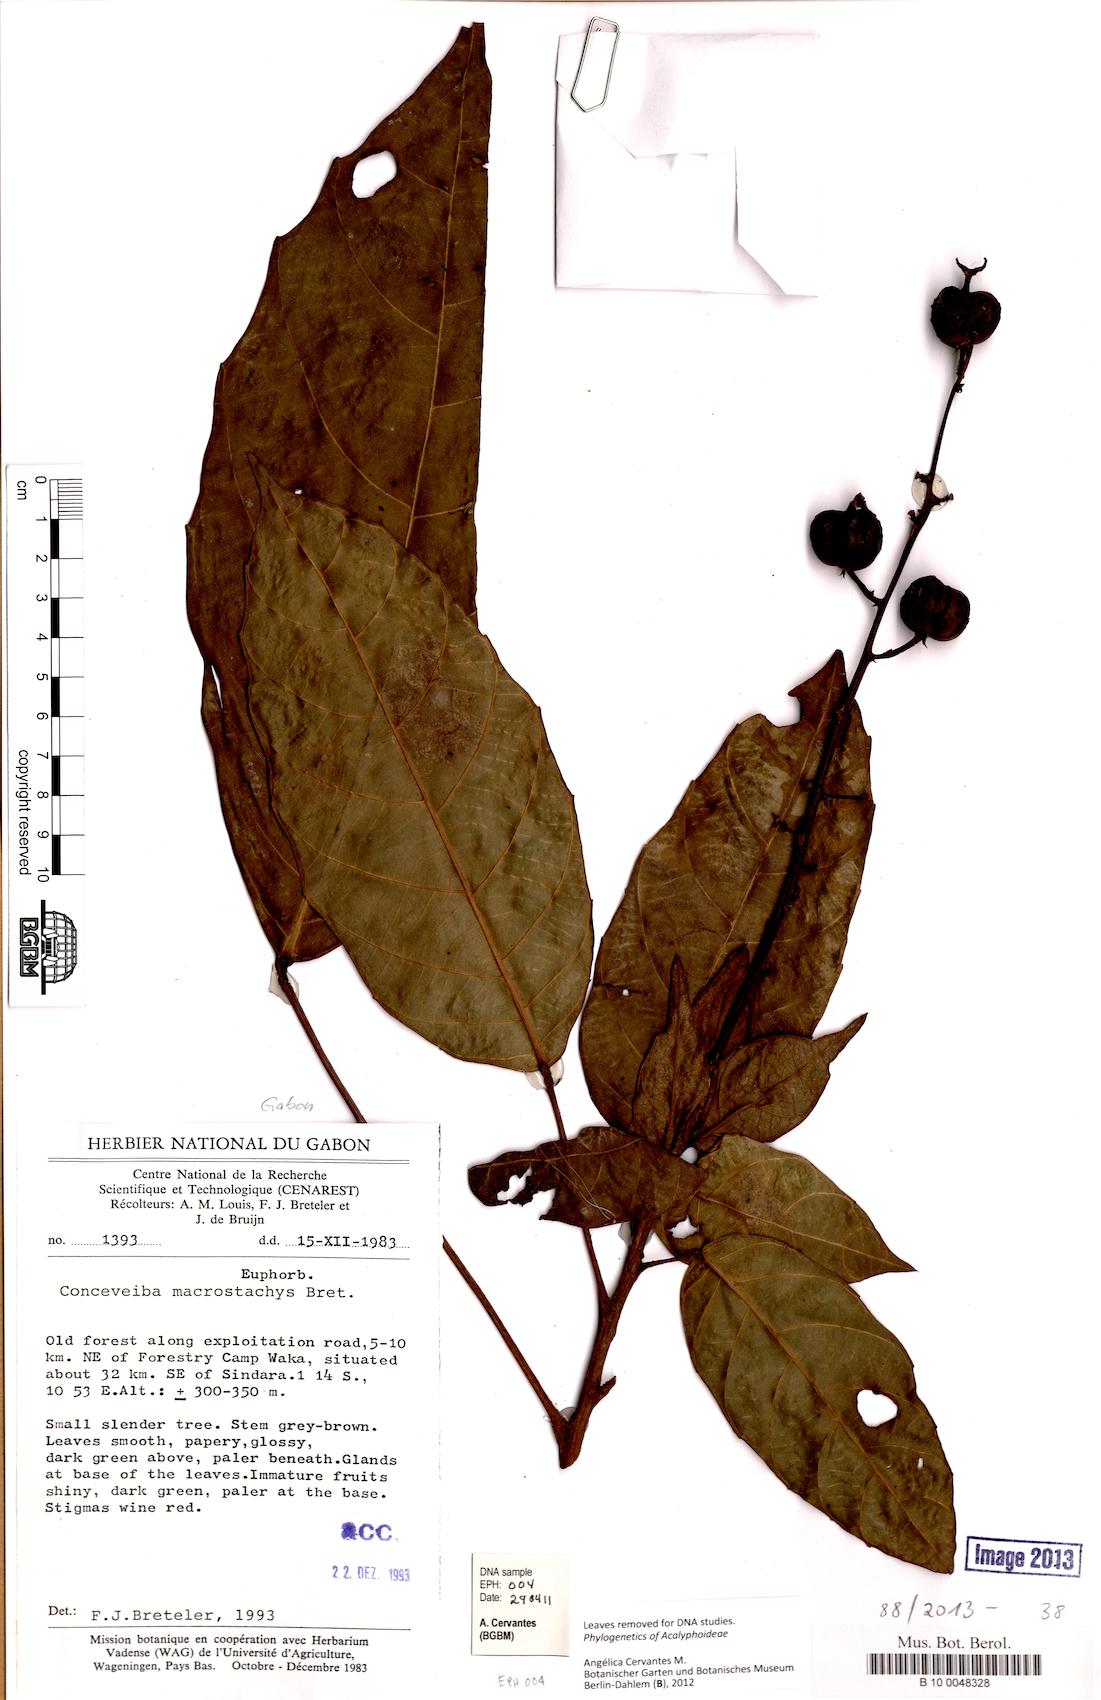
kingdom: Plantae
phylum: Tracheophyta
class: Magnoliopsida
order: Malpighiales
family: Euphorbiaceae
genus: Aubletiana
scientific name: Aubletiana macrostachys
